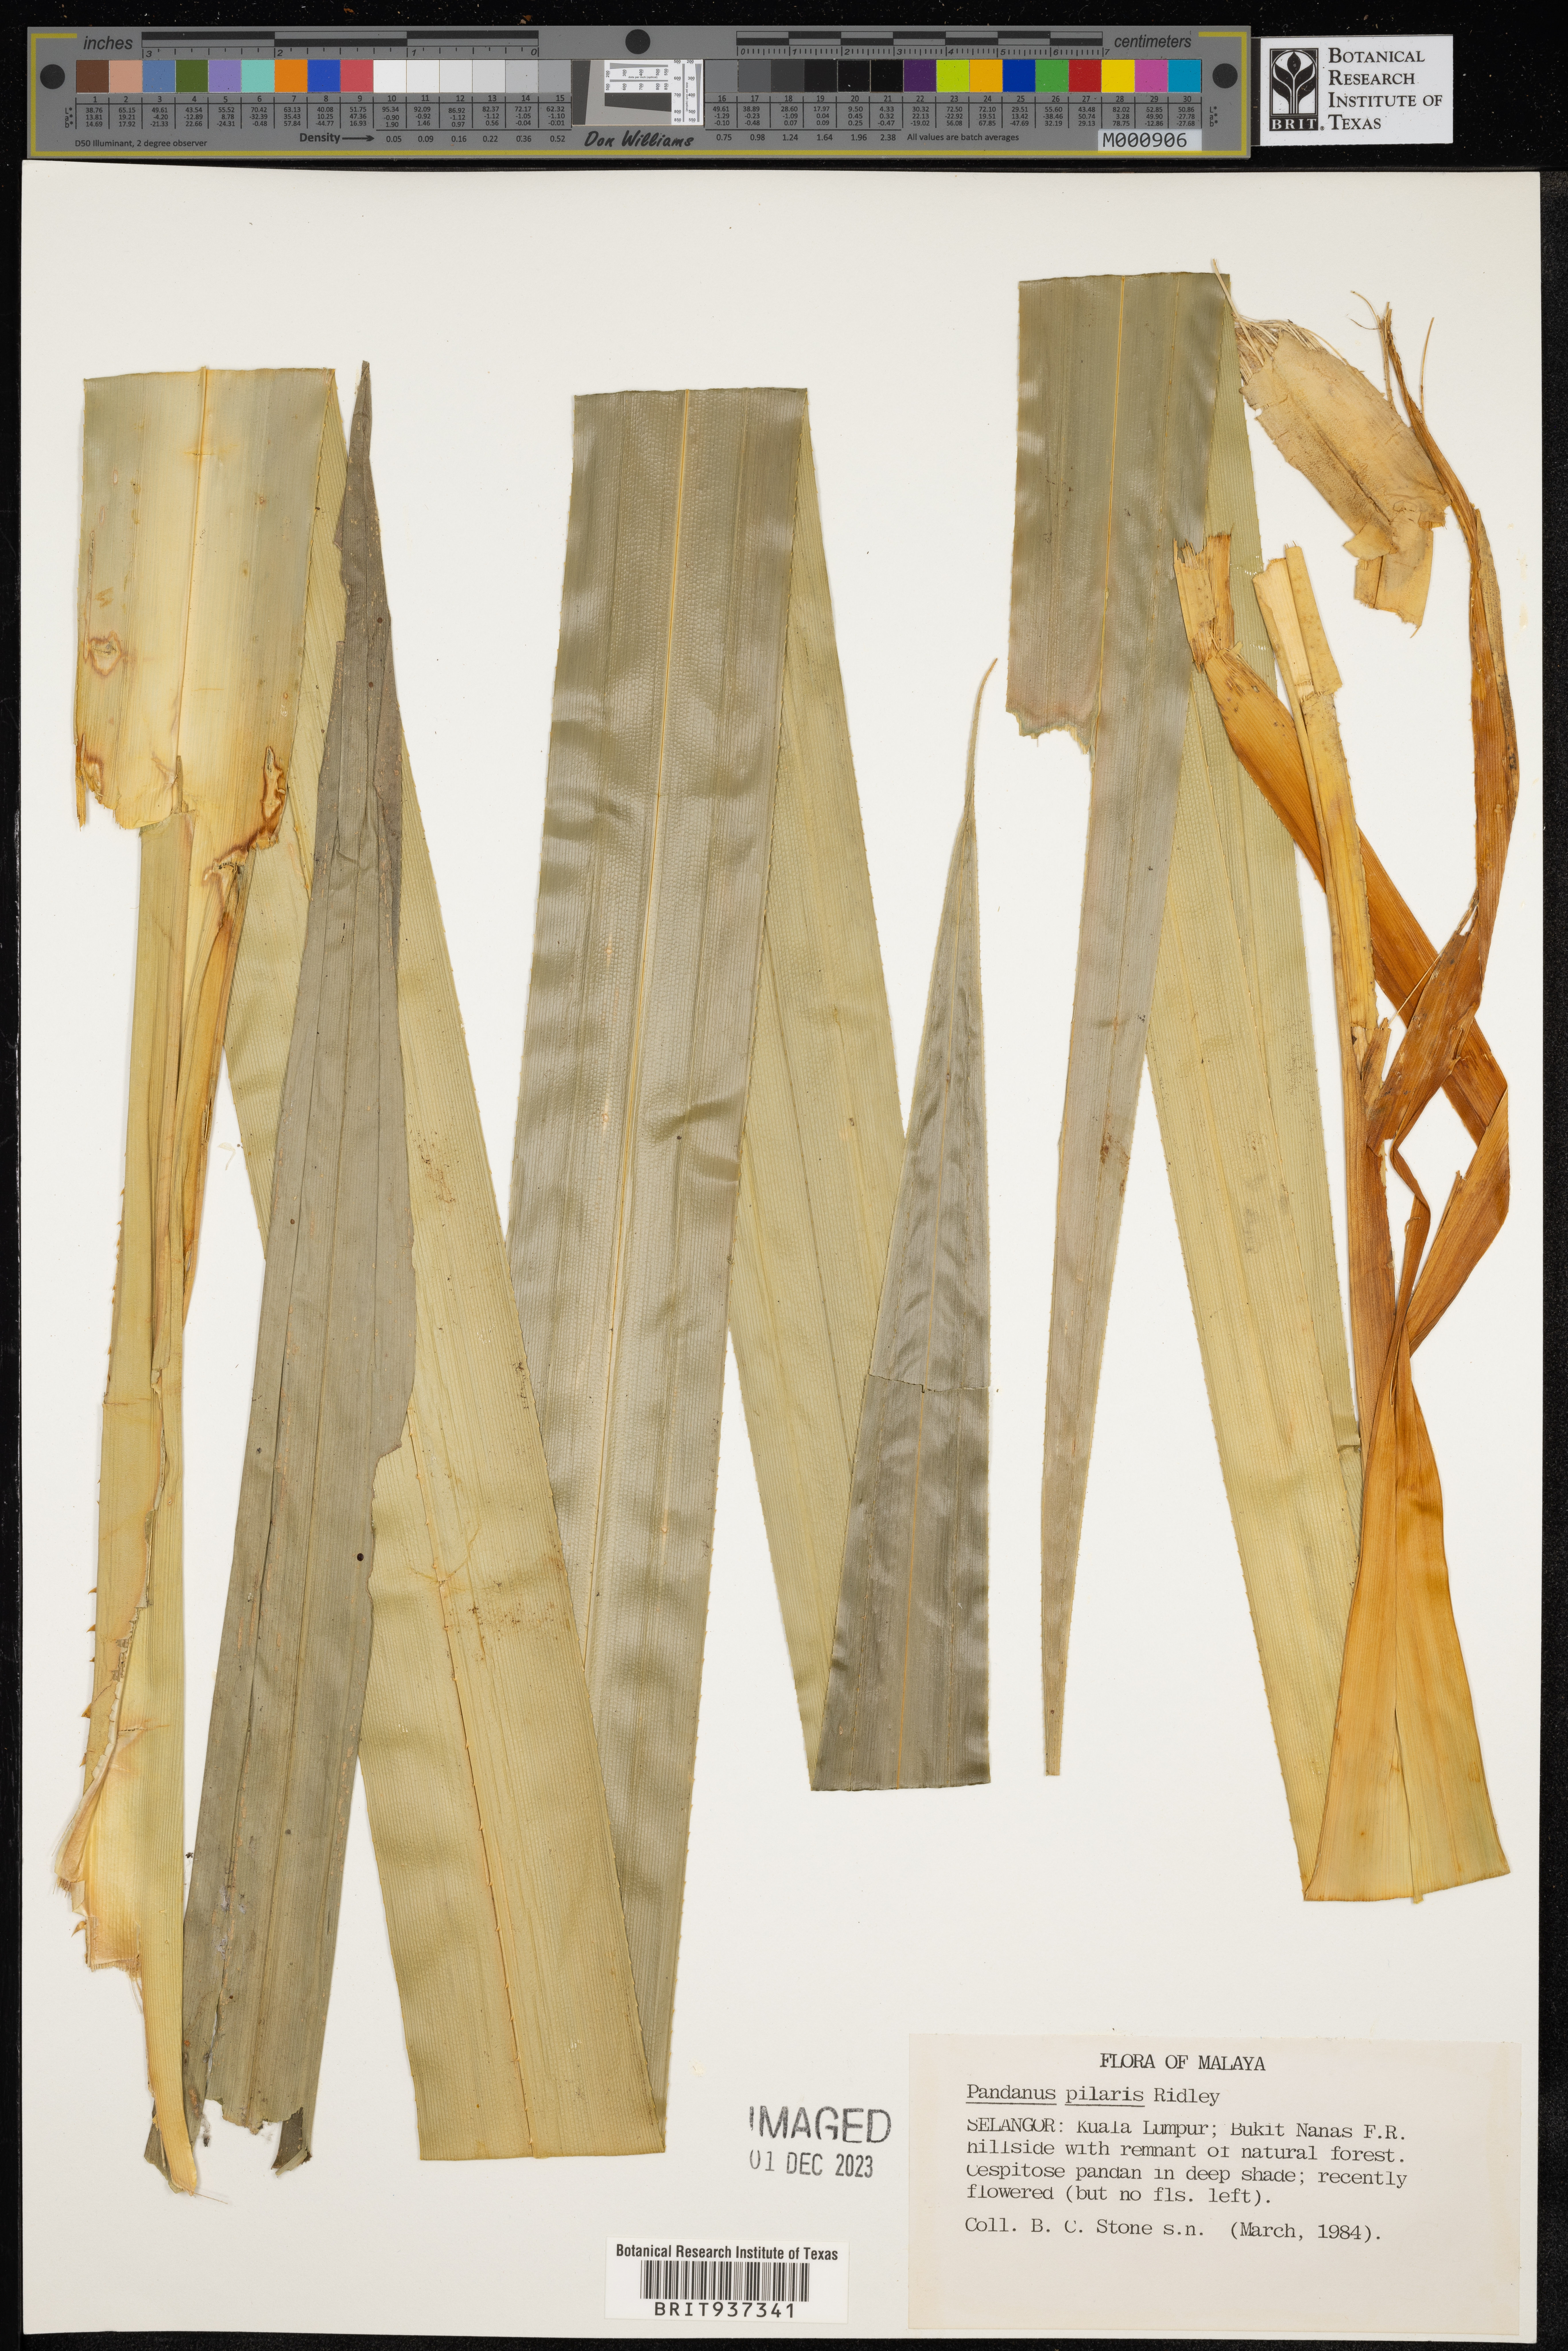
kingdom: Plantae
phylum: Tracheophyta
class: Liliopsida
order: Pandanales
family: Pandanaceae
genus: Pandanus
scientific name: Pandanus
